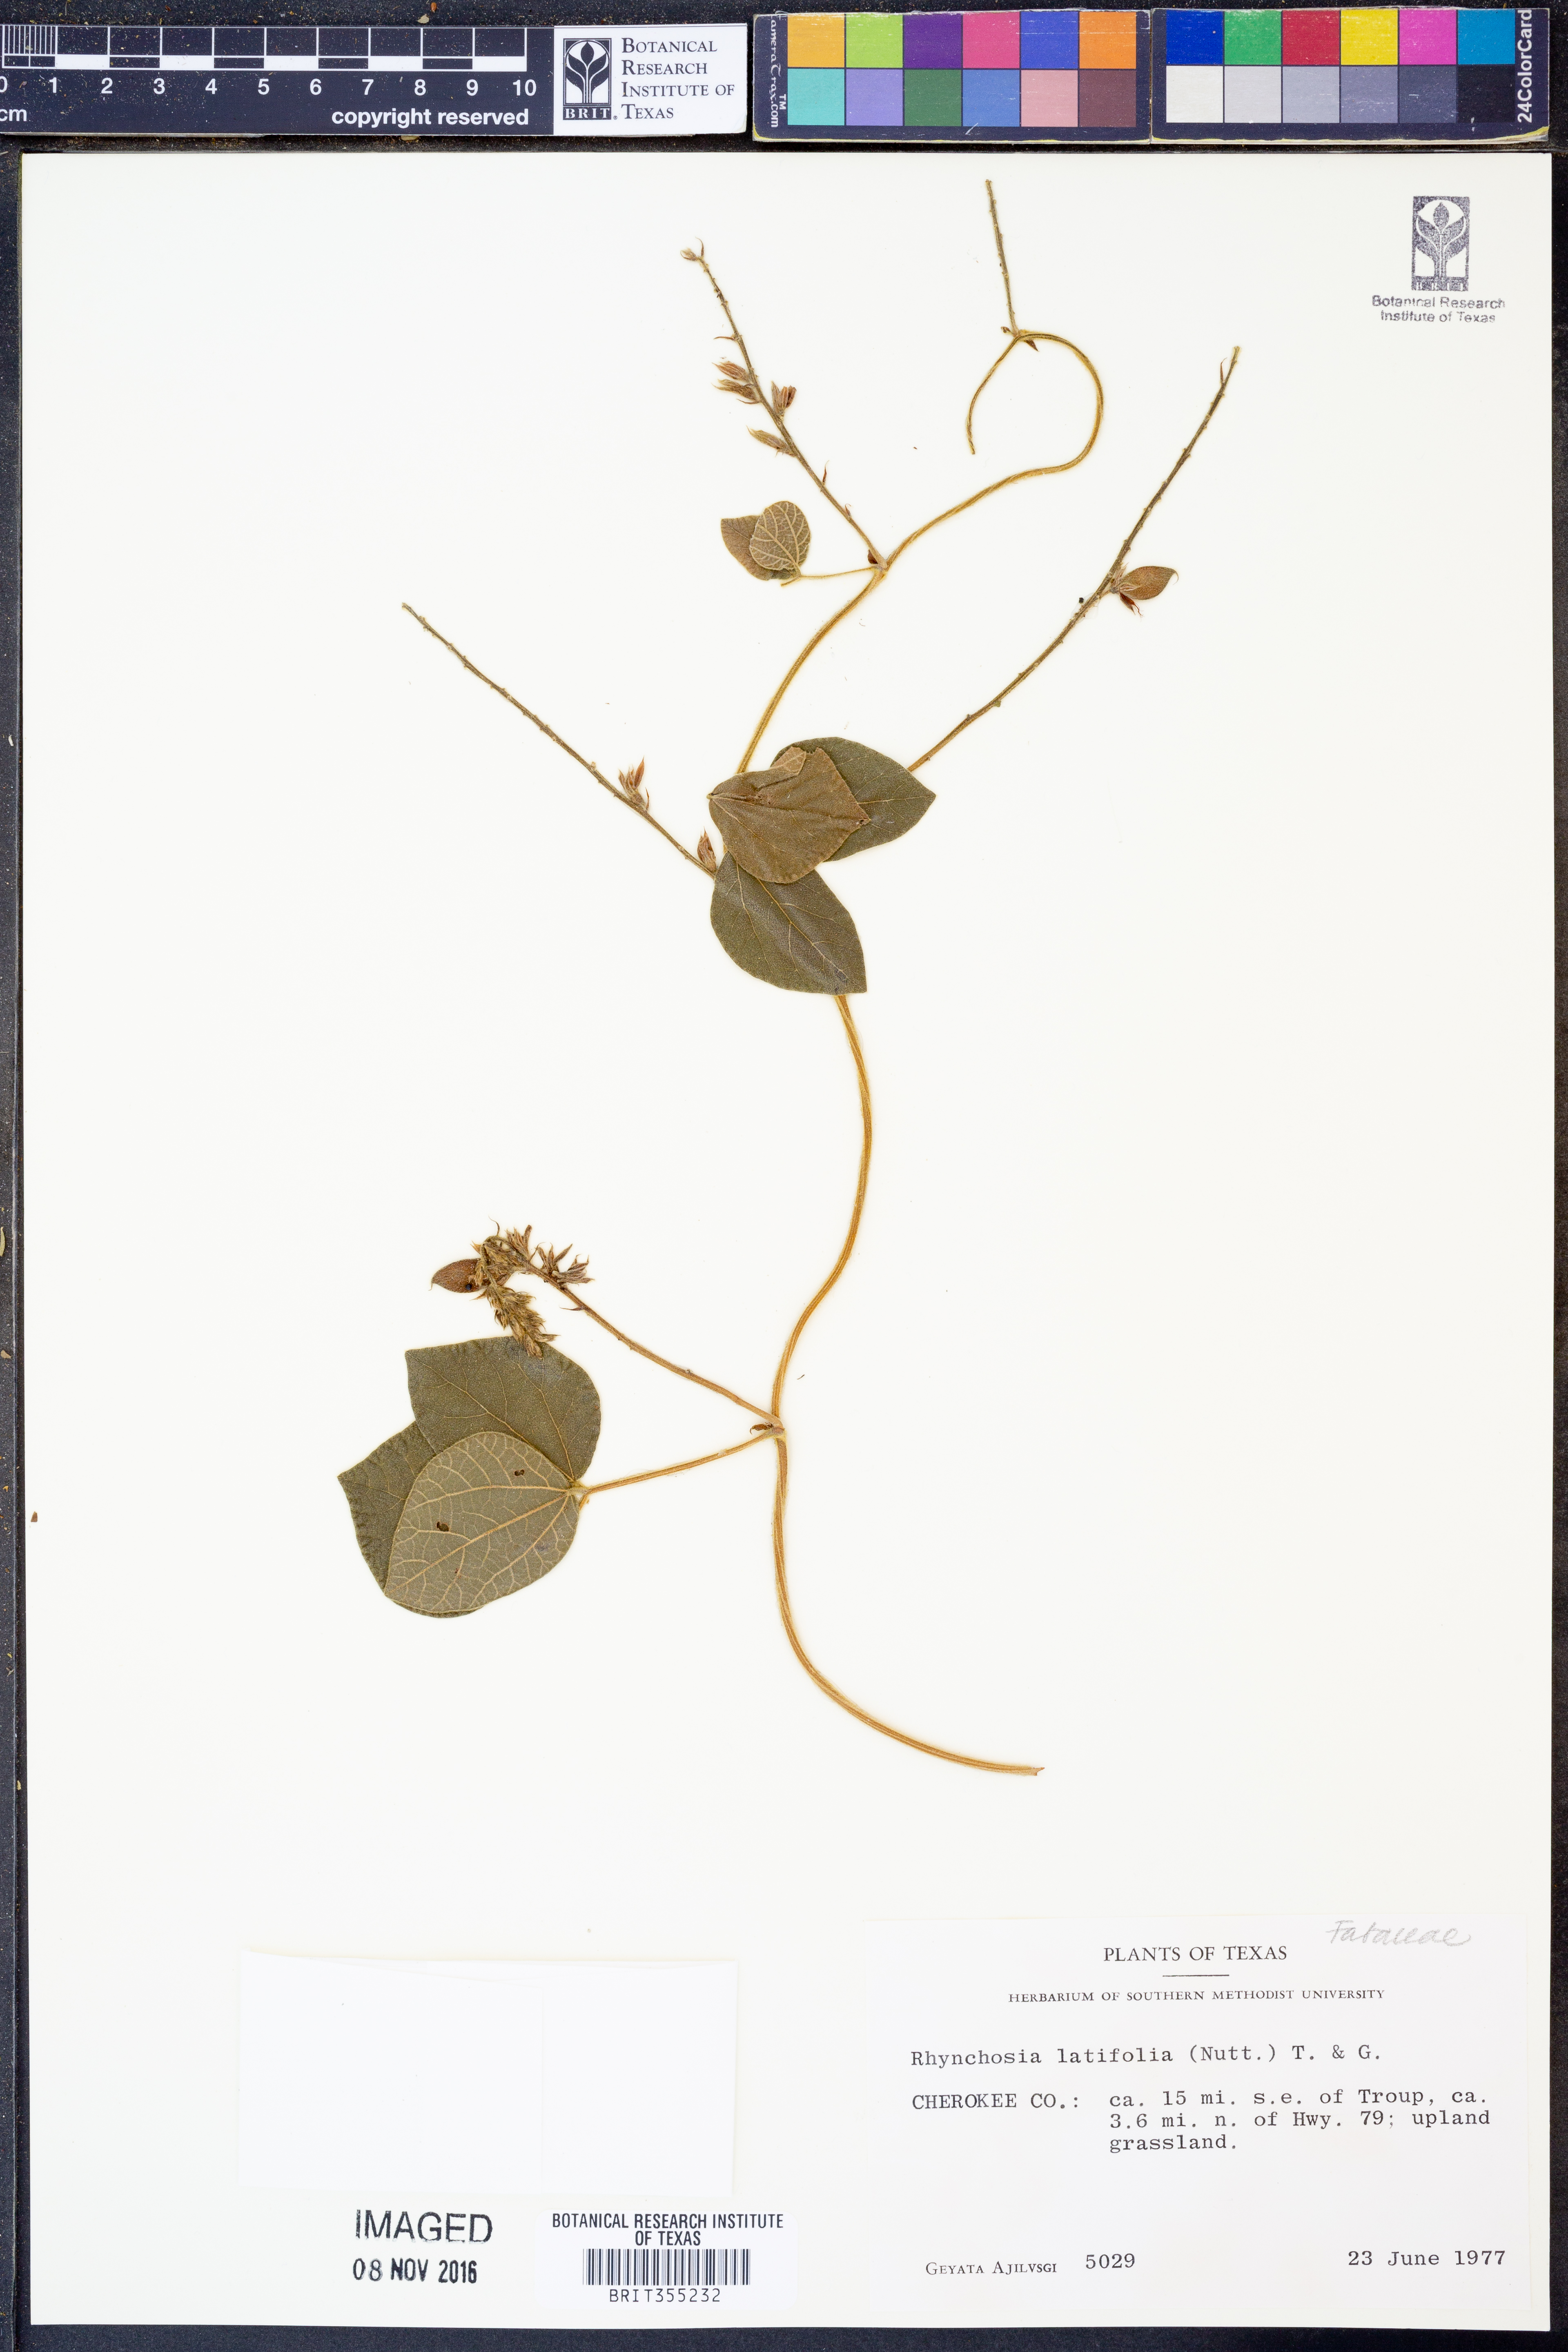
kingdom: Plantae
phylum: Tracheophyta
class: Magnoliopsida
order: Fabales
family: Fabaceae
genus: Rhynchosia
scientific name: Rhynchosia latifolia
